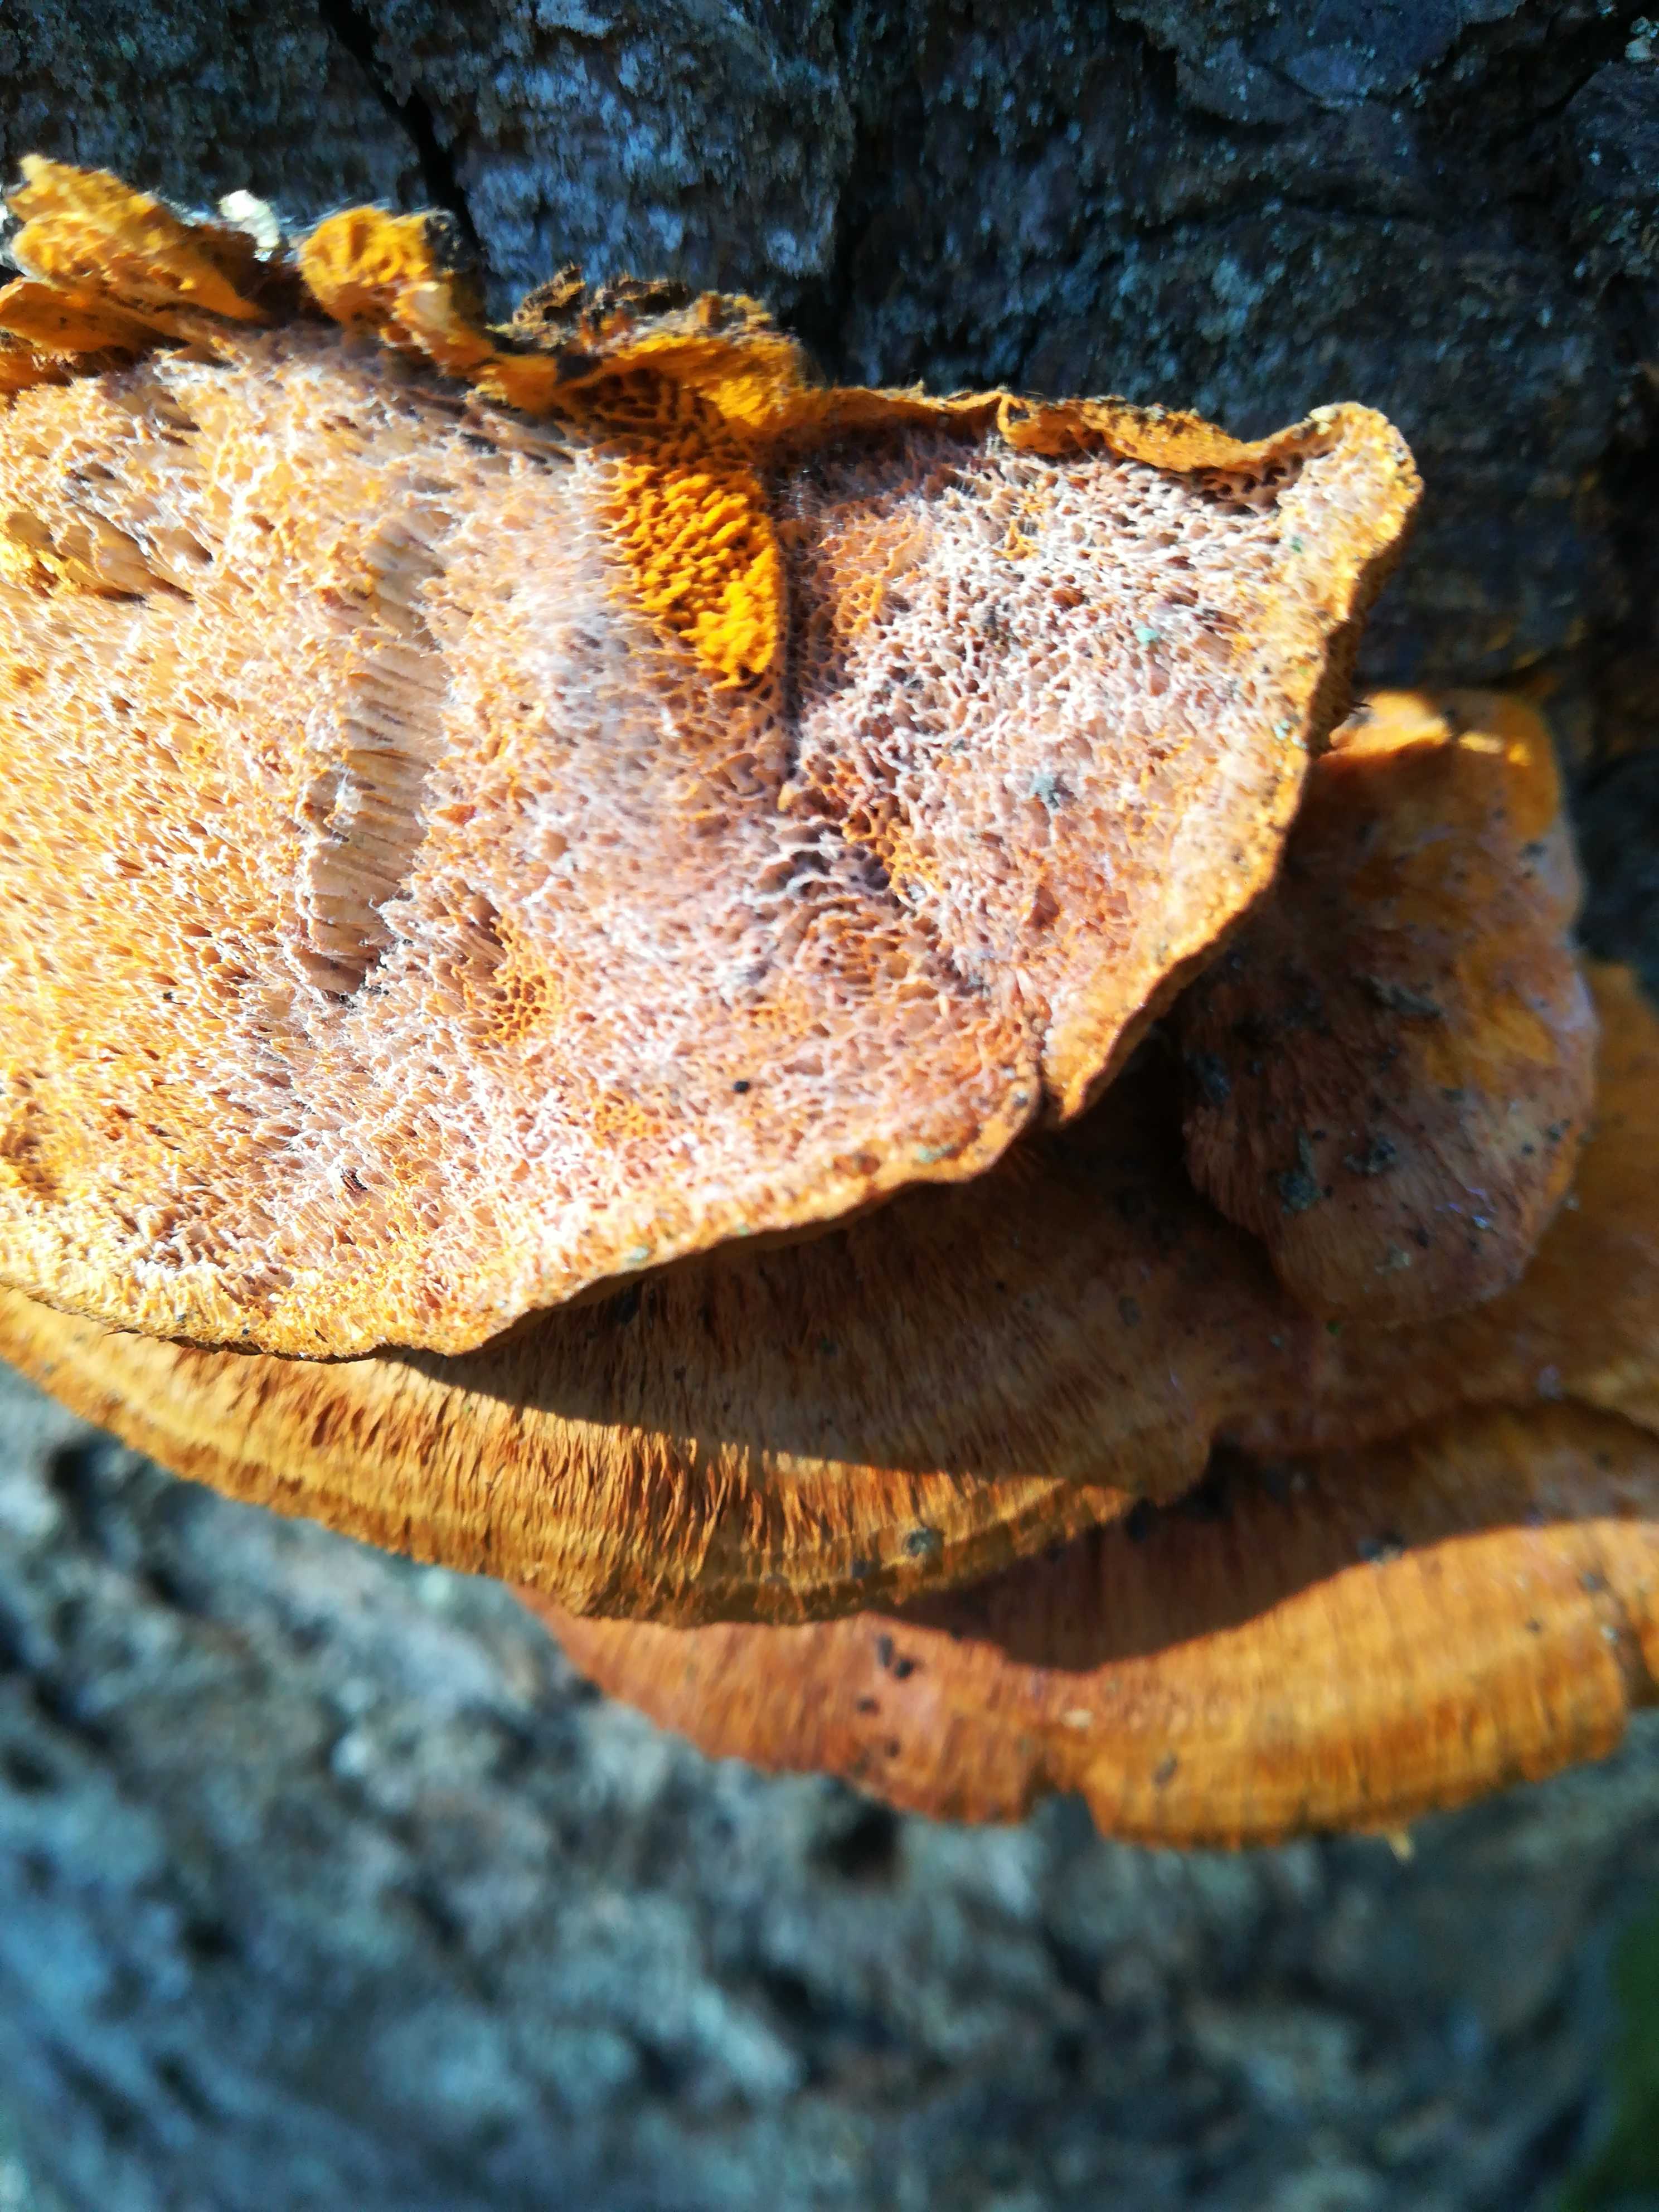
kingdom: Fungi
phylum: Basidiomycota
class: Agaricomycetes
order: Polyporales
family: Pycnoporellaceae
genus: Pycnoporellus
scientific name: Pycnoporellus fulgens
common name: flammeporesvamp
